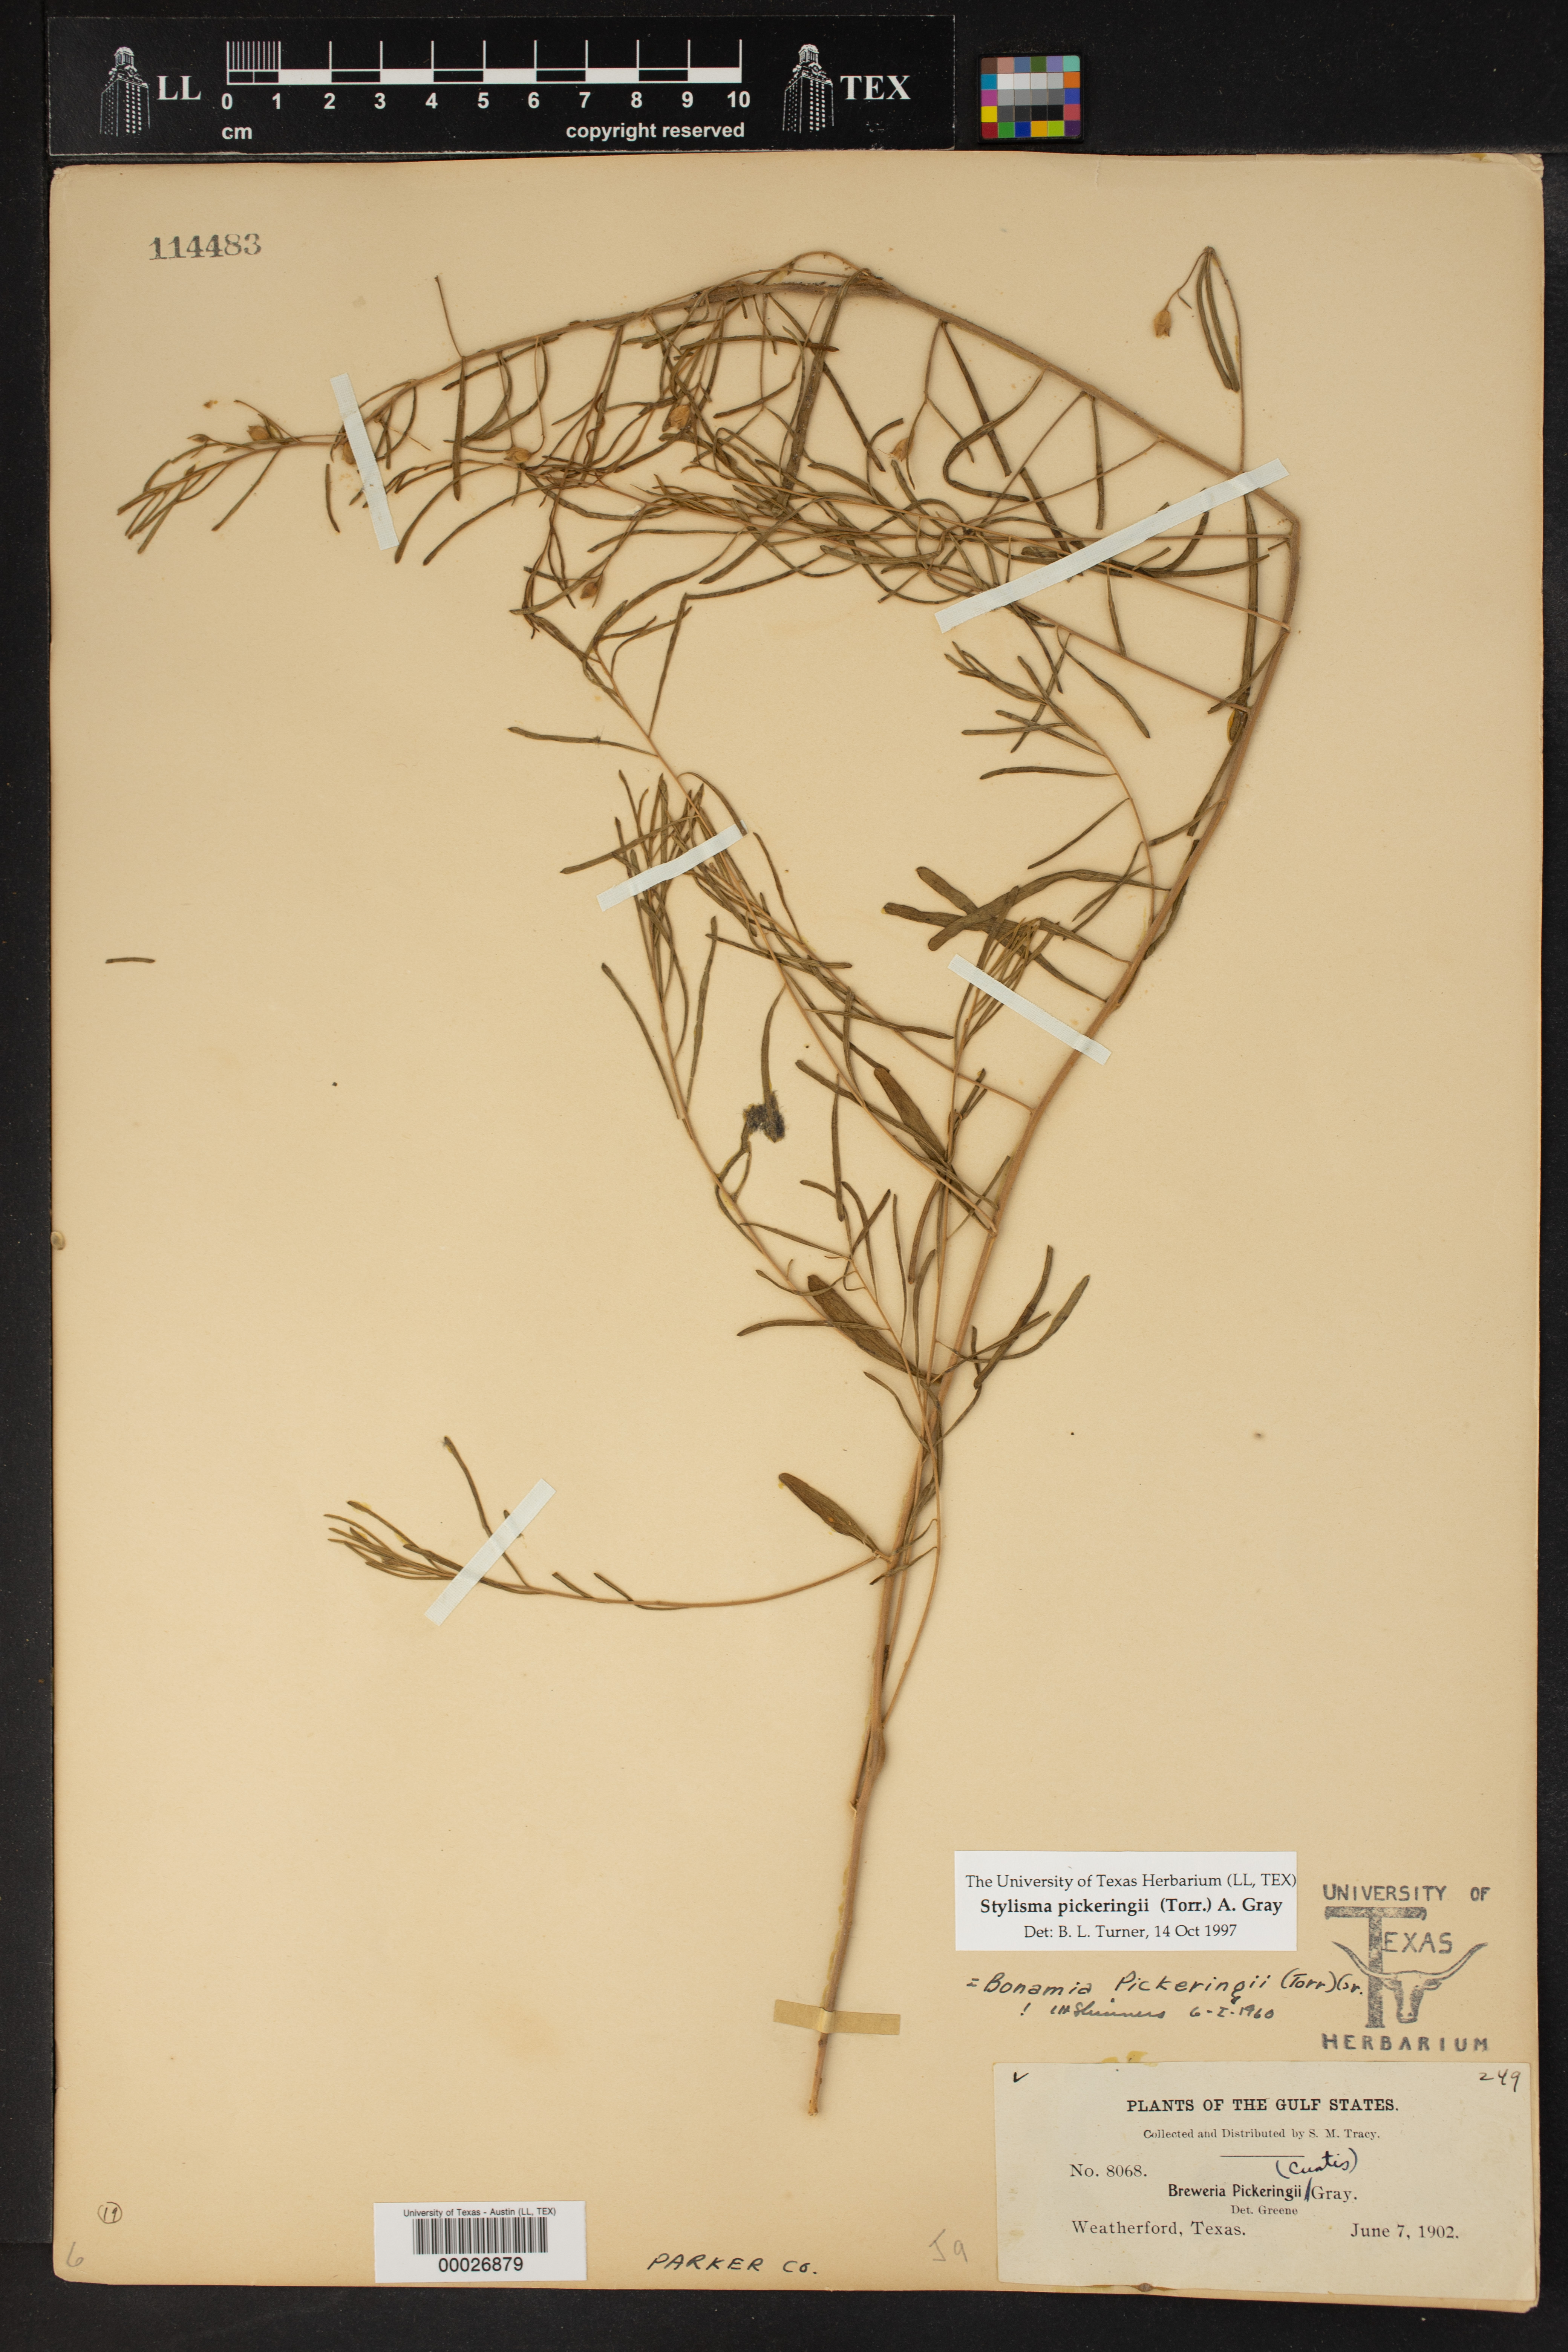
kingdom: Plantae
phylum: Tracheophyta
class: Magnoliopsida
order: Solanales
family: Convolvulaceae
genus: Stylisma
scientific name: Stylisma pickeringii
